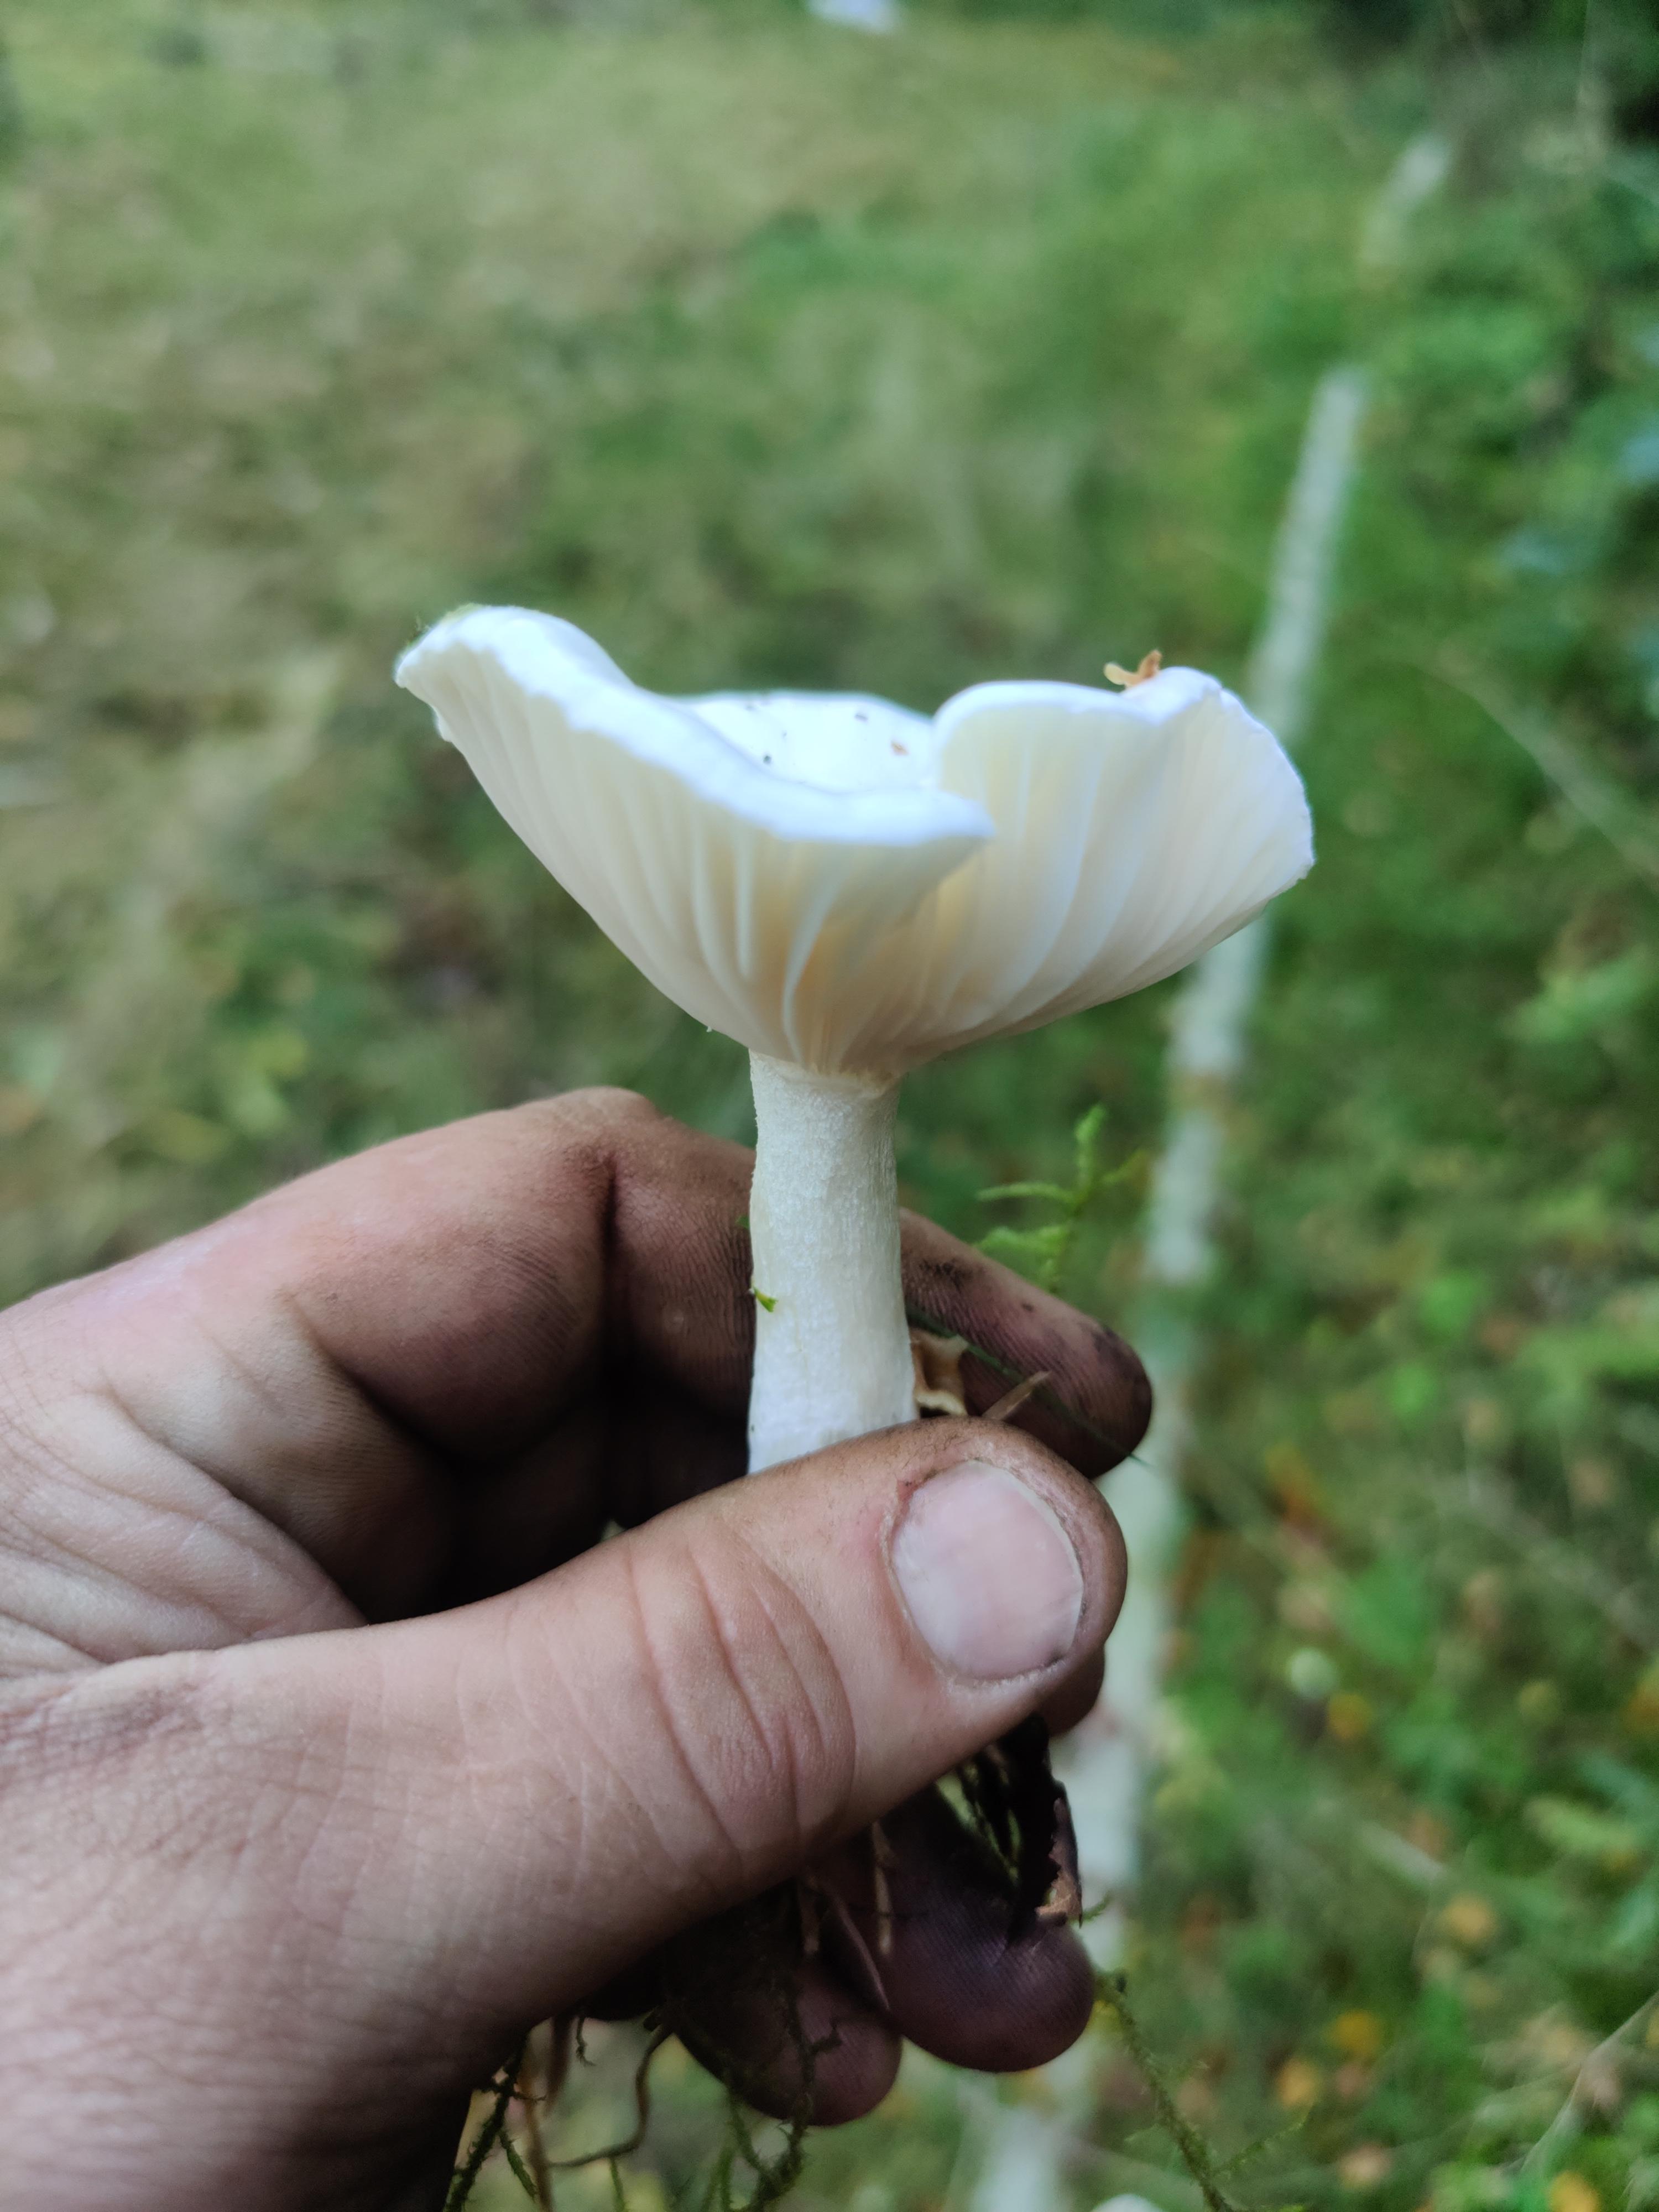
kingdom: Fungi
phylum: Basidiomycota
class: Agaricomycetes
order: Agaricales
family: Hygrophoraceae
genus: Hygrophorus
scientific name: Hygrophorus eburneus
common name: elfenbens-sneglehat
